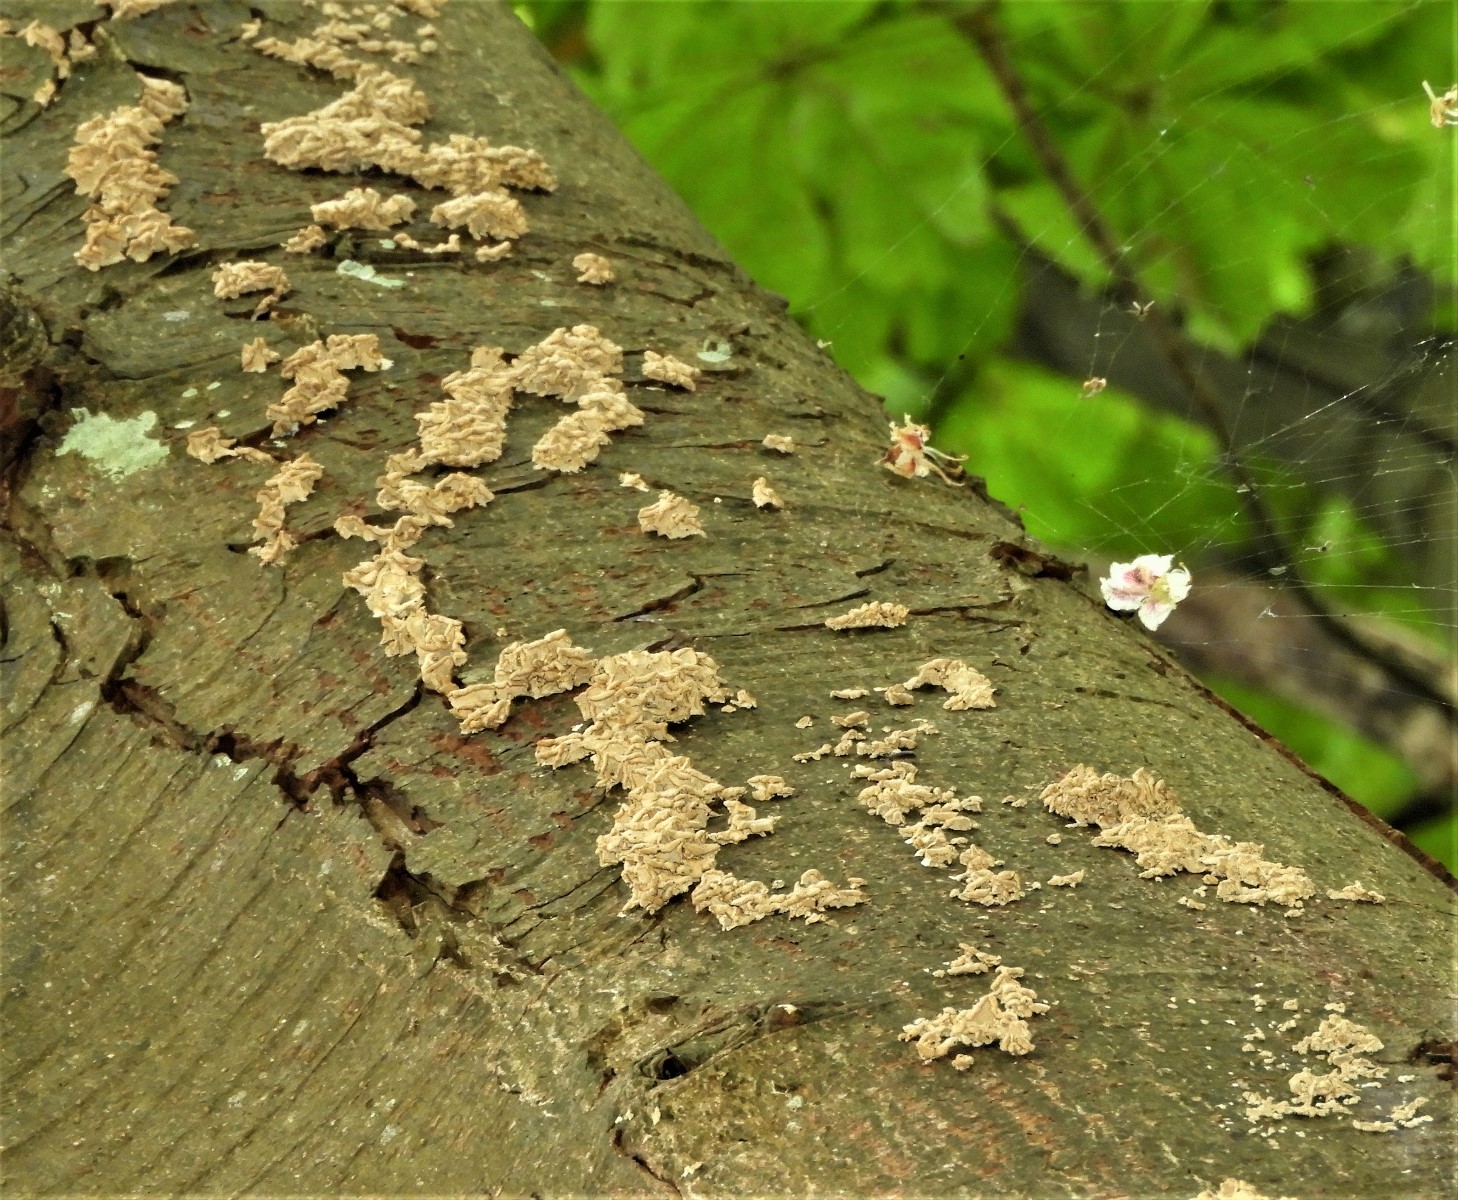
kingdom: Fungi
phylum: Basidiomycota
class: Agaricomycetes
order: Amylocorticiales
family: Amylocorticiaceae
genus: Plicaturopsis
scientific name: Plicaturopsis crispa
